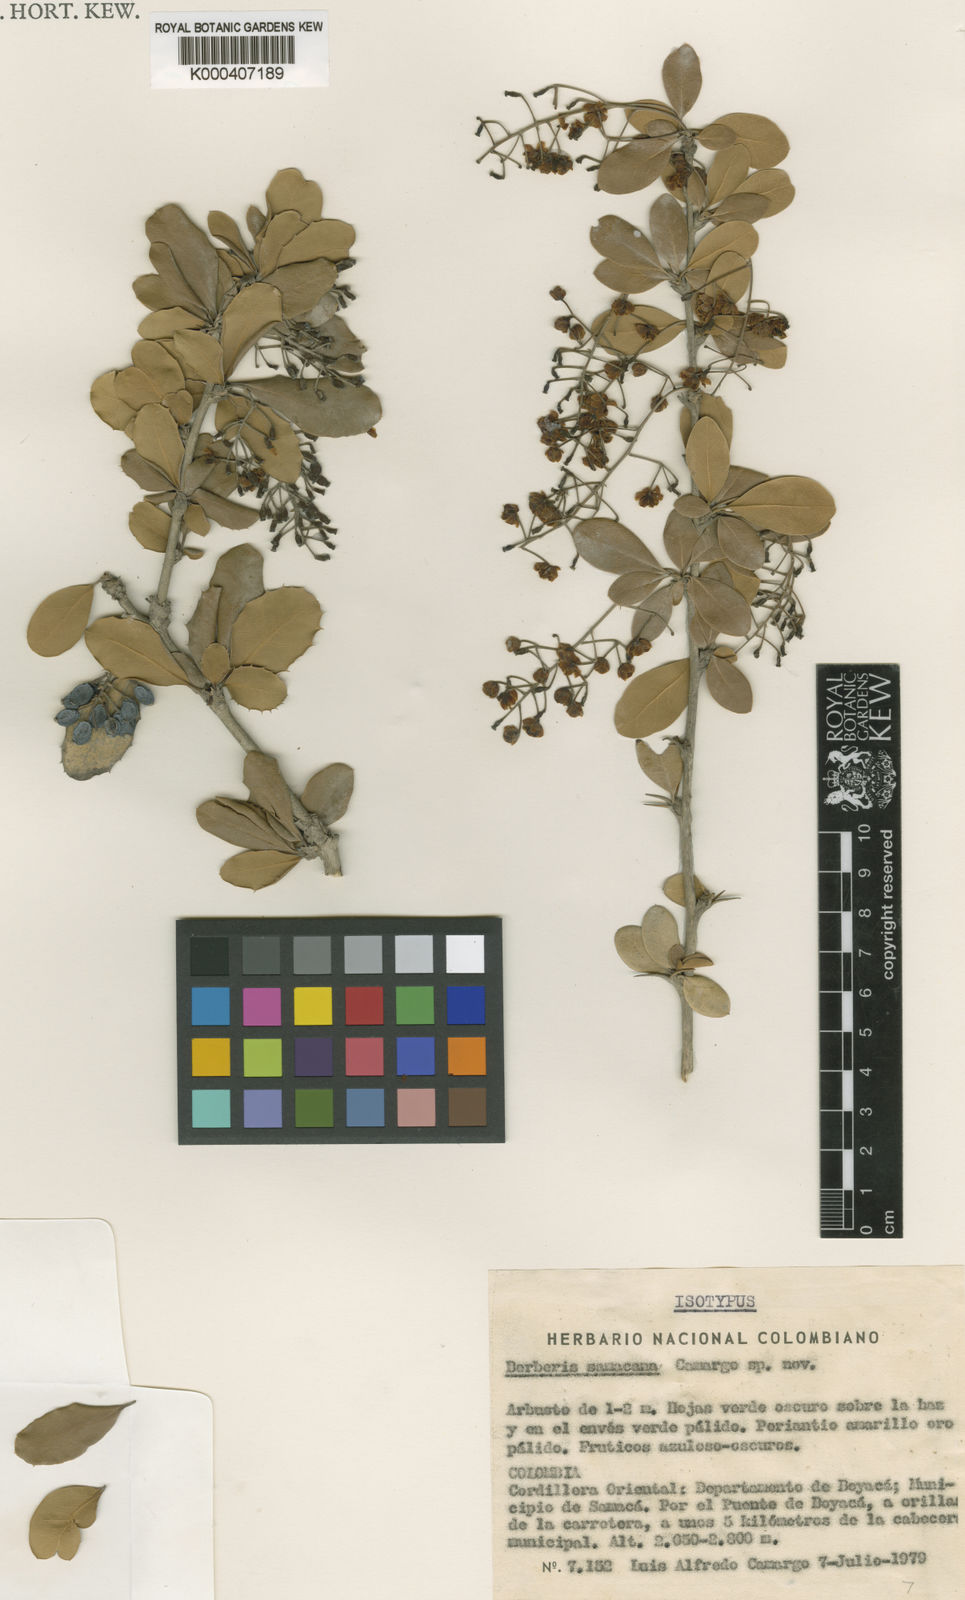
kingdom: Plantae
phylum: Tracheophyta
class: Magnoliopsida
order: Ranunculales
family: Berberidaceae
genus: Berberis
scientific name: Berberis samacana
